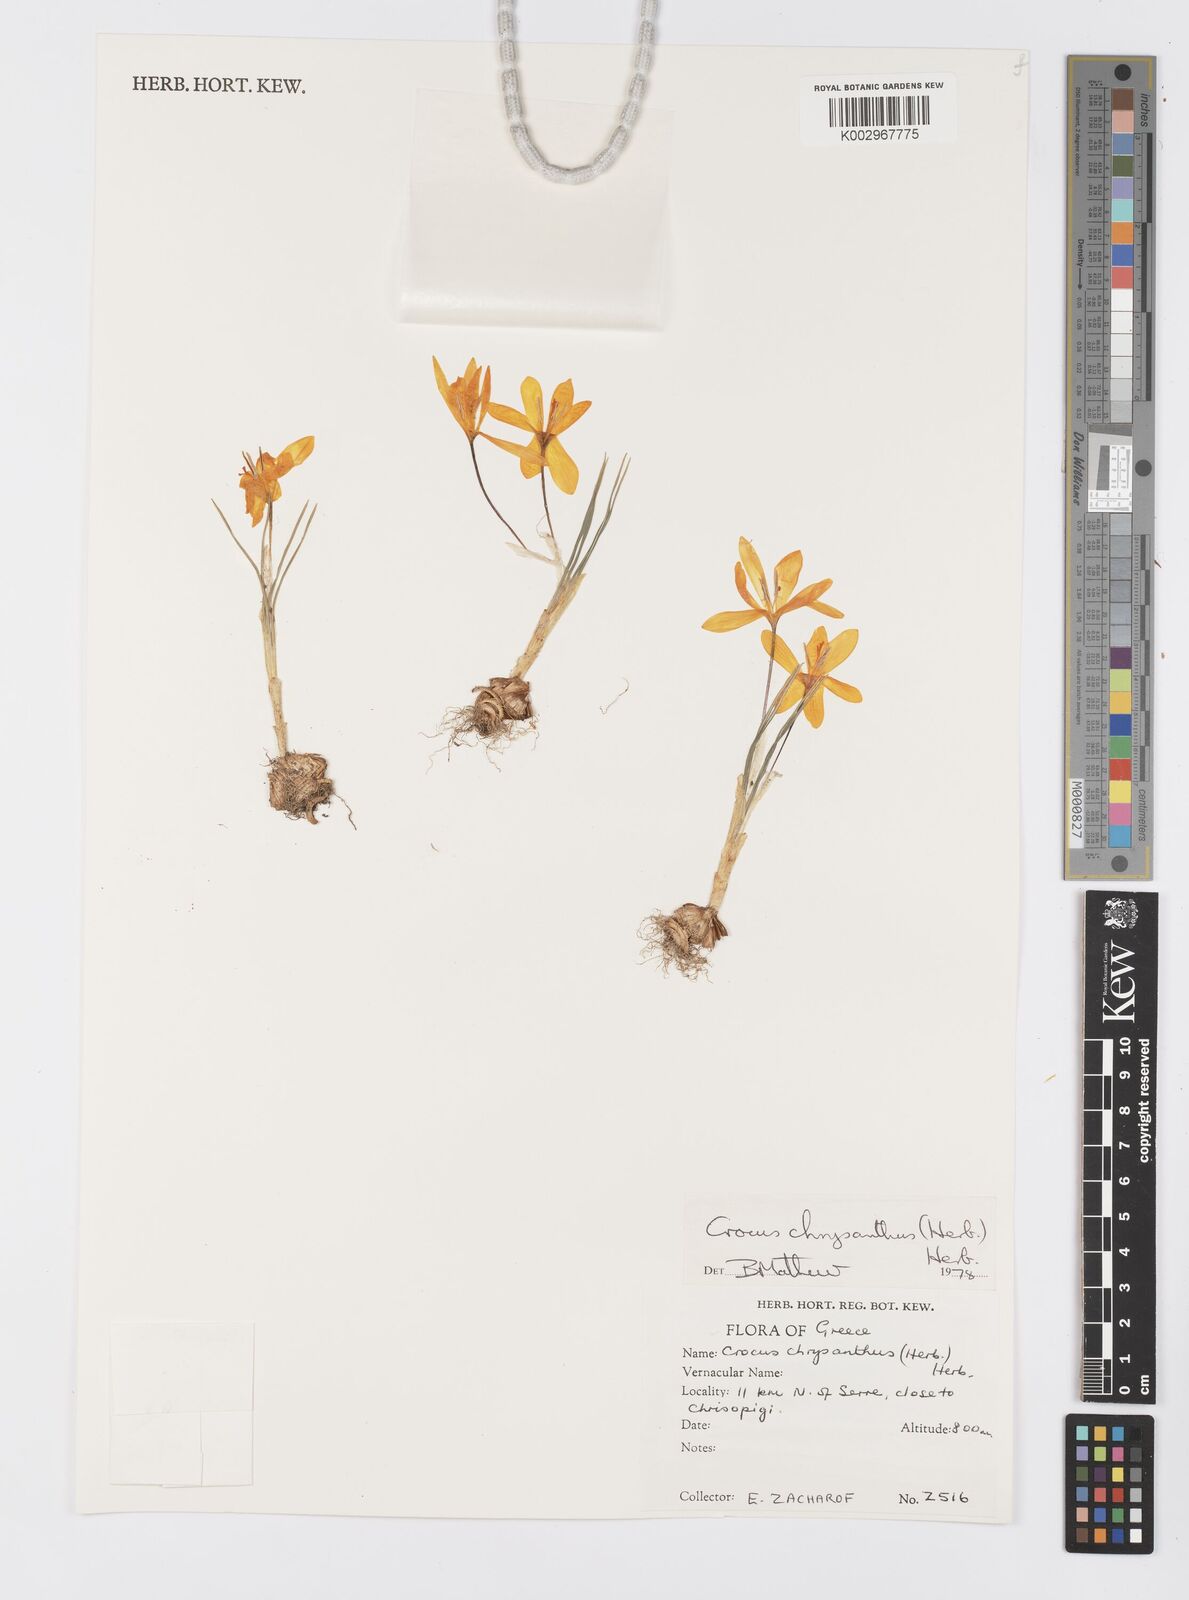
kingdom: Plantae
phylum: Tracheophyta
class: Liliopsida
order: Asparagales
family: Iridaceae
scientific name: Iridaceae
